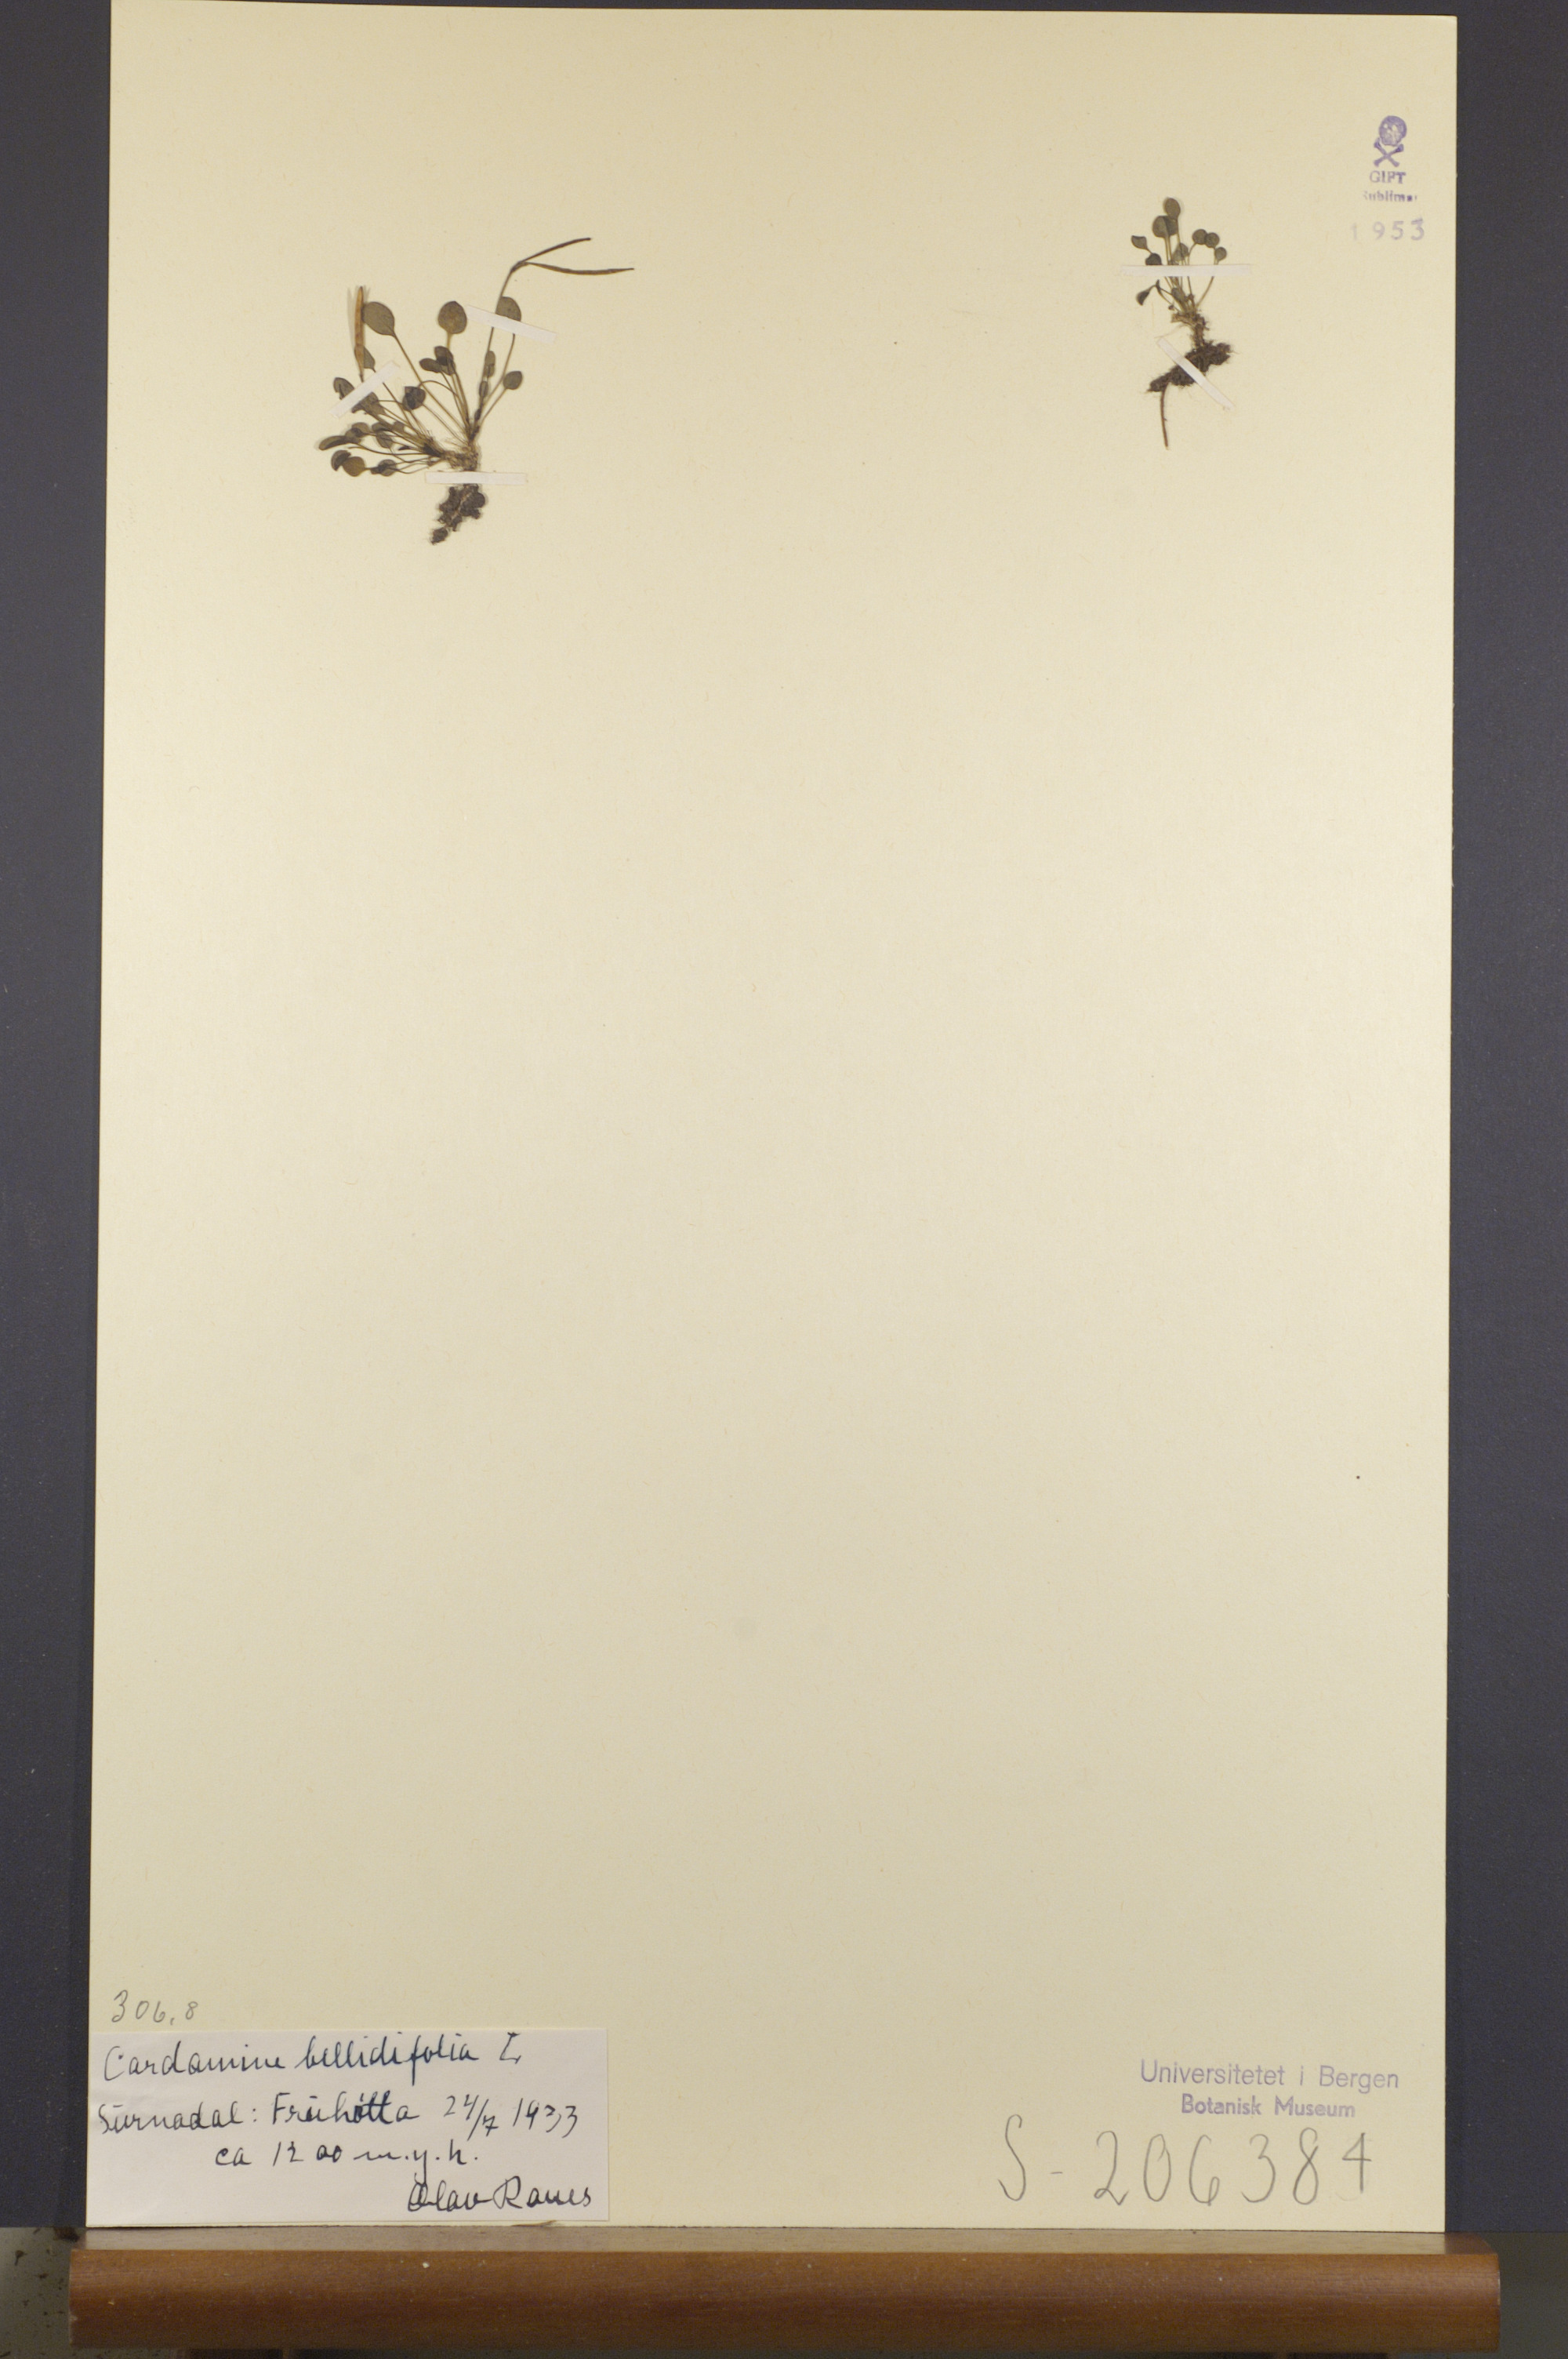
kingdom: Plantae
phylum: Tracheophyta
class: Magnoliopsida
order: Brassicales
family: Brassicaceae
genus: Cardamine
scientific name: Cardamine bellidifolia
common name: Alpine bittercress
